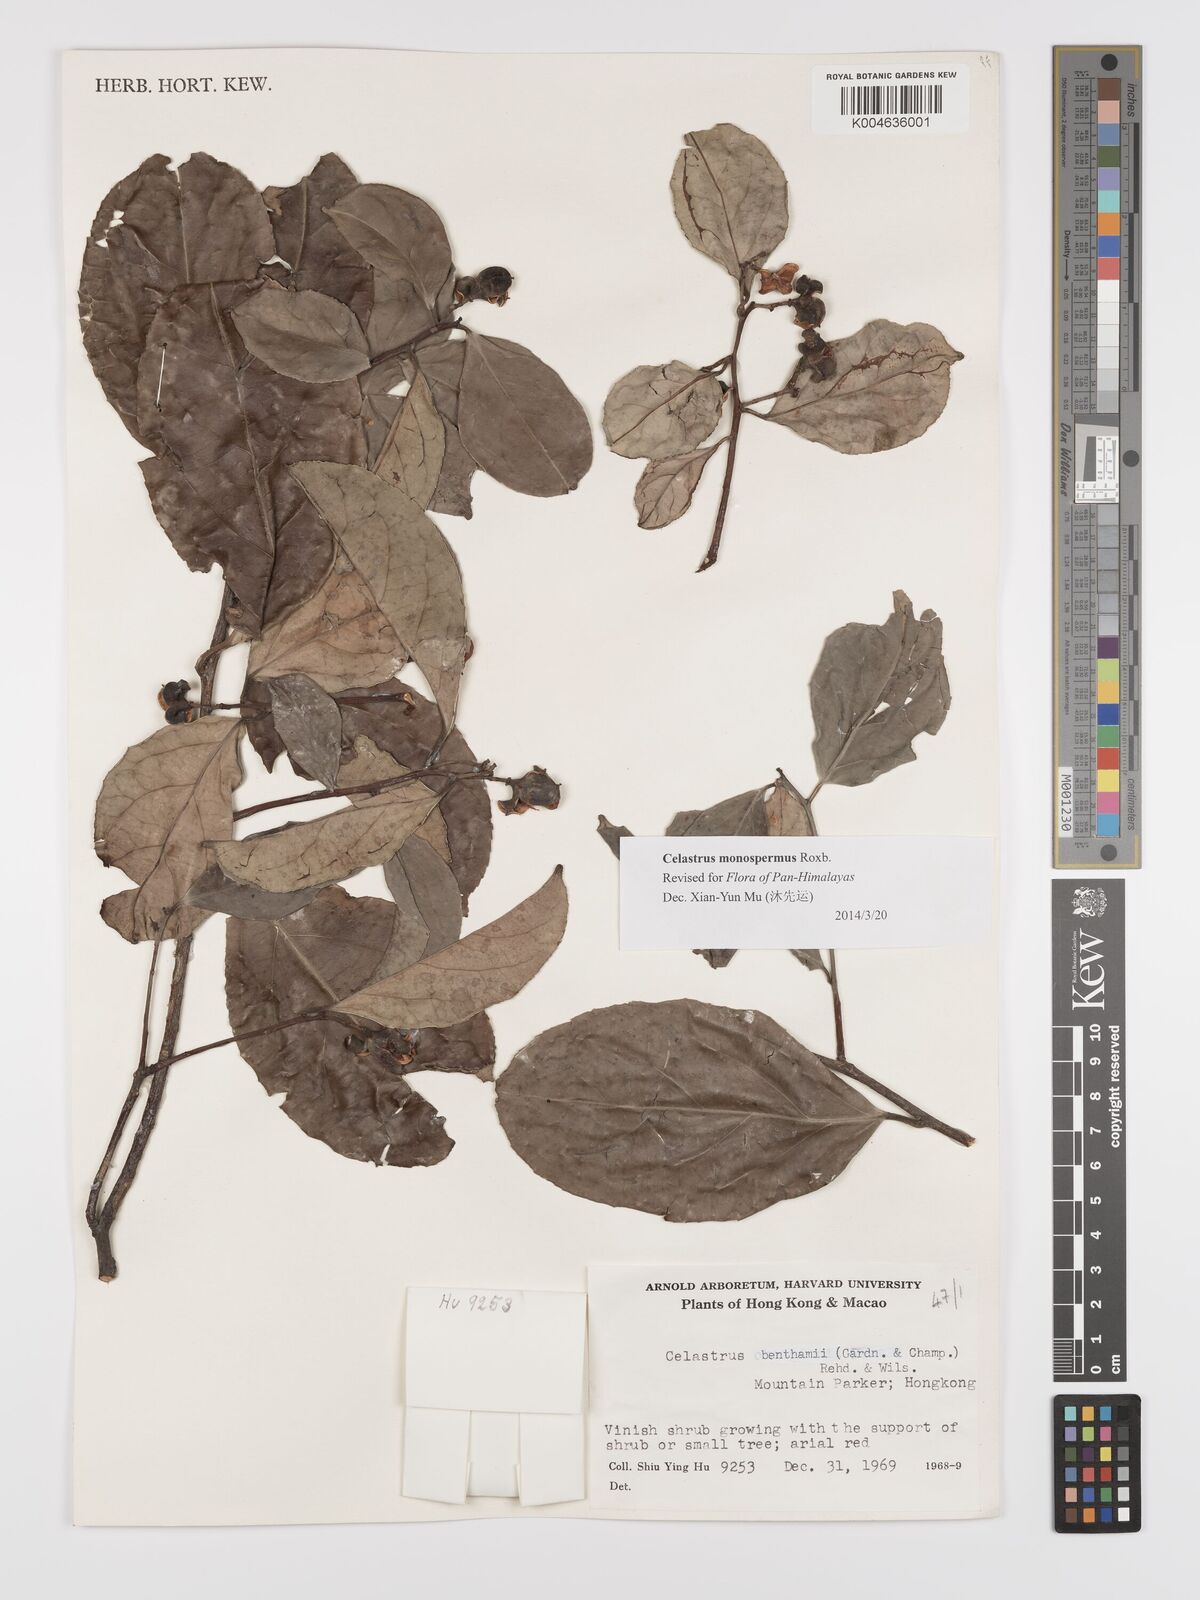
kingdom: Plantae
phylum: Tracheophyta
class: Magnoliopsida
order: Celastrales
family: Celastraceae
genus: Celastrus
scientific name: Celastrus monospermus
